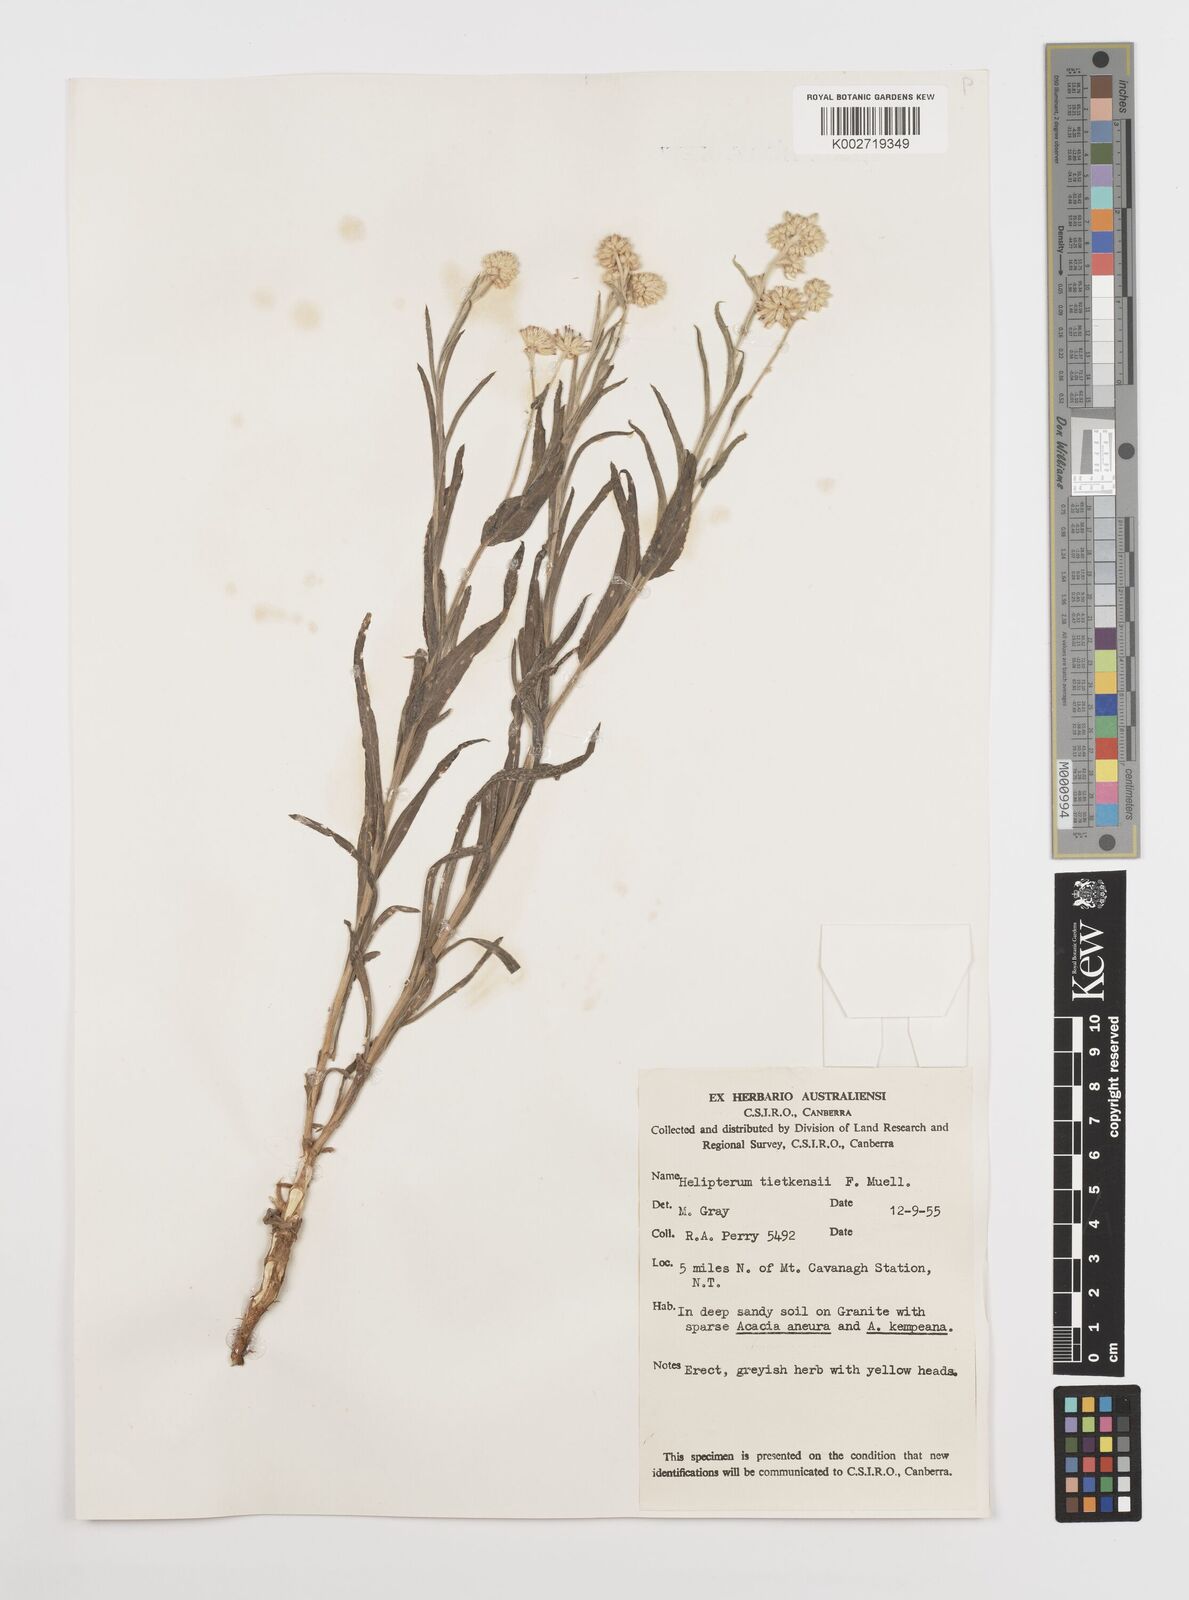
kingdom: Plantae
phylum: Tracheophyta
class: Magnoliopsida
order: Asterales
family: Asteraceae
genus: Rhodanthe
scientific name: Rhodanthe tietkensii
